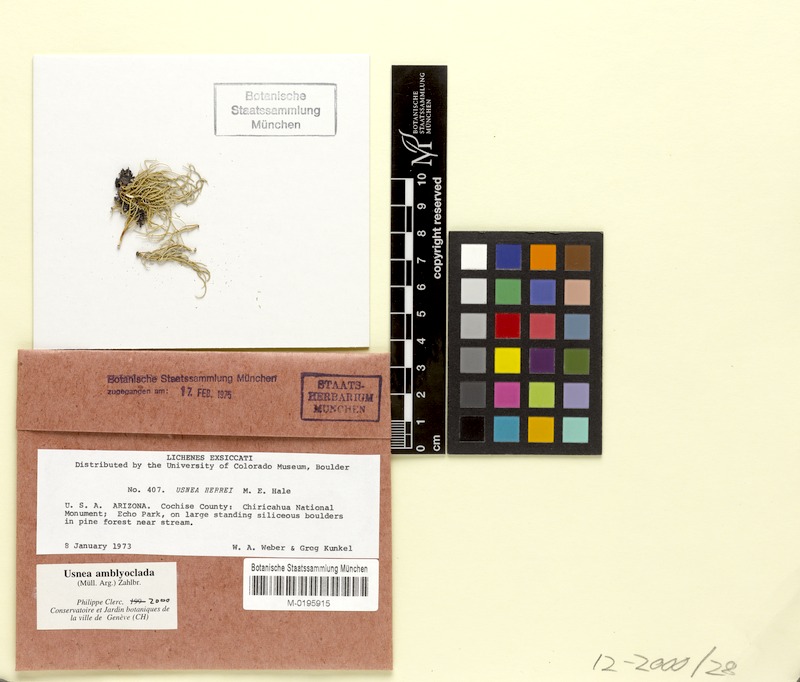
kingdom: Fungi
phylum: Ascomycota
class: Lecanoromycetes
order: Lecanorales
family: Parmeliaceae
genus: Usnea
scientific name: Usnea amblyoclada
